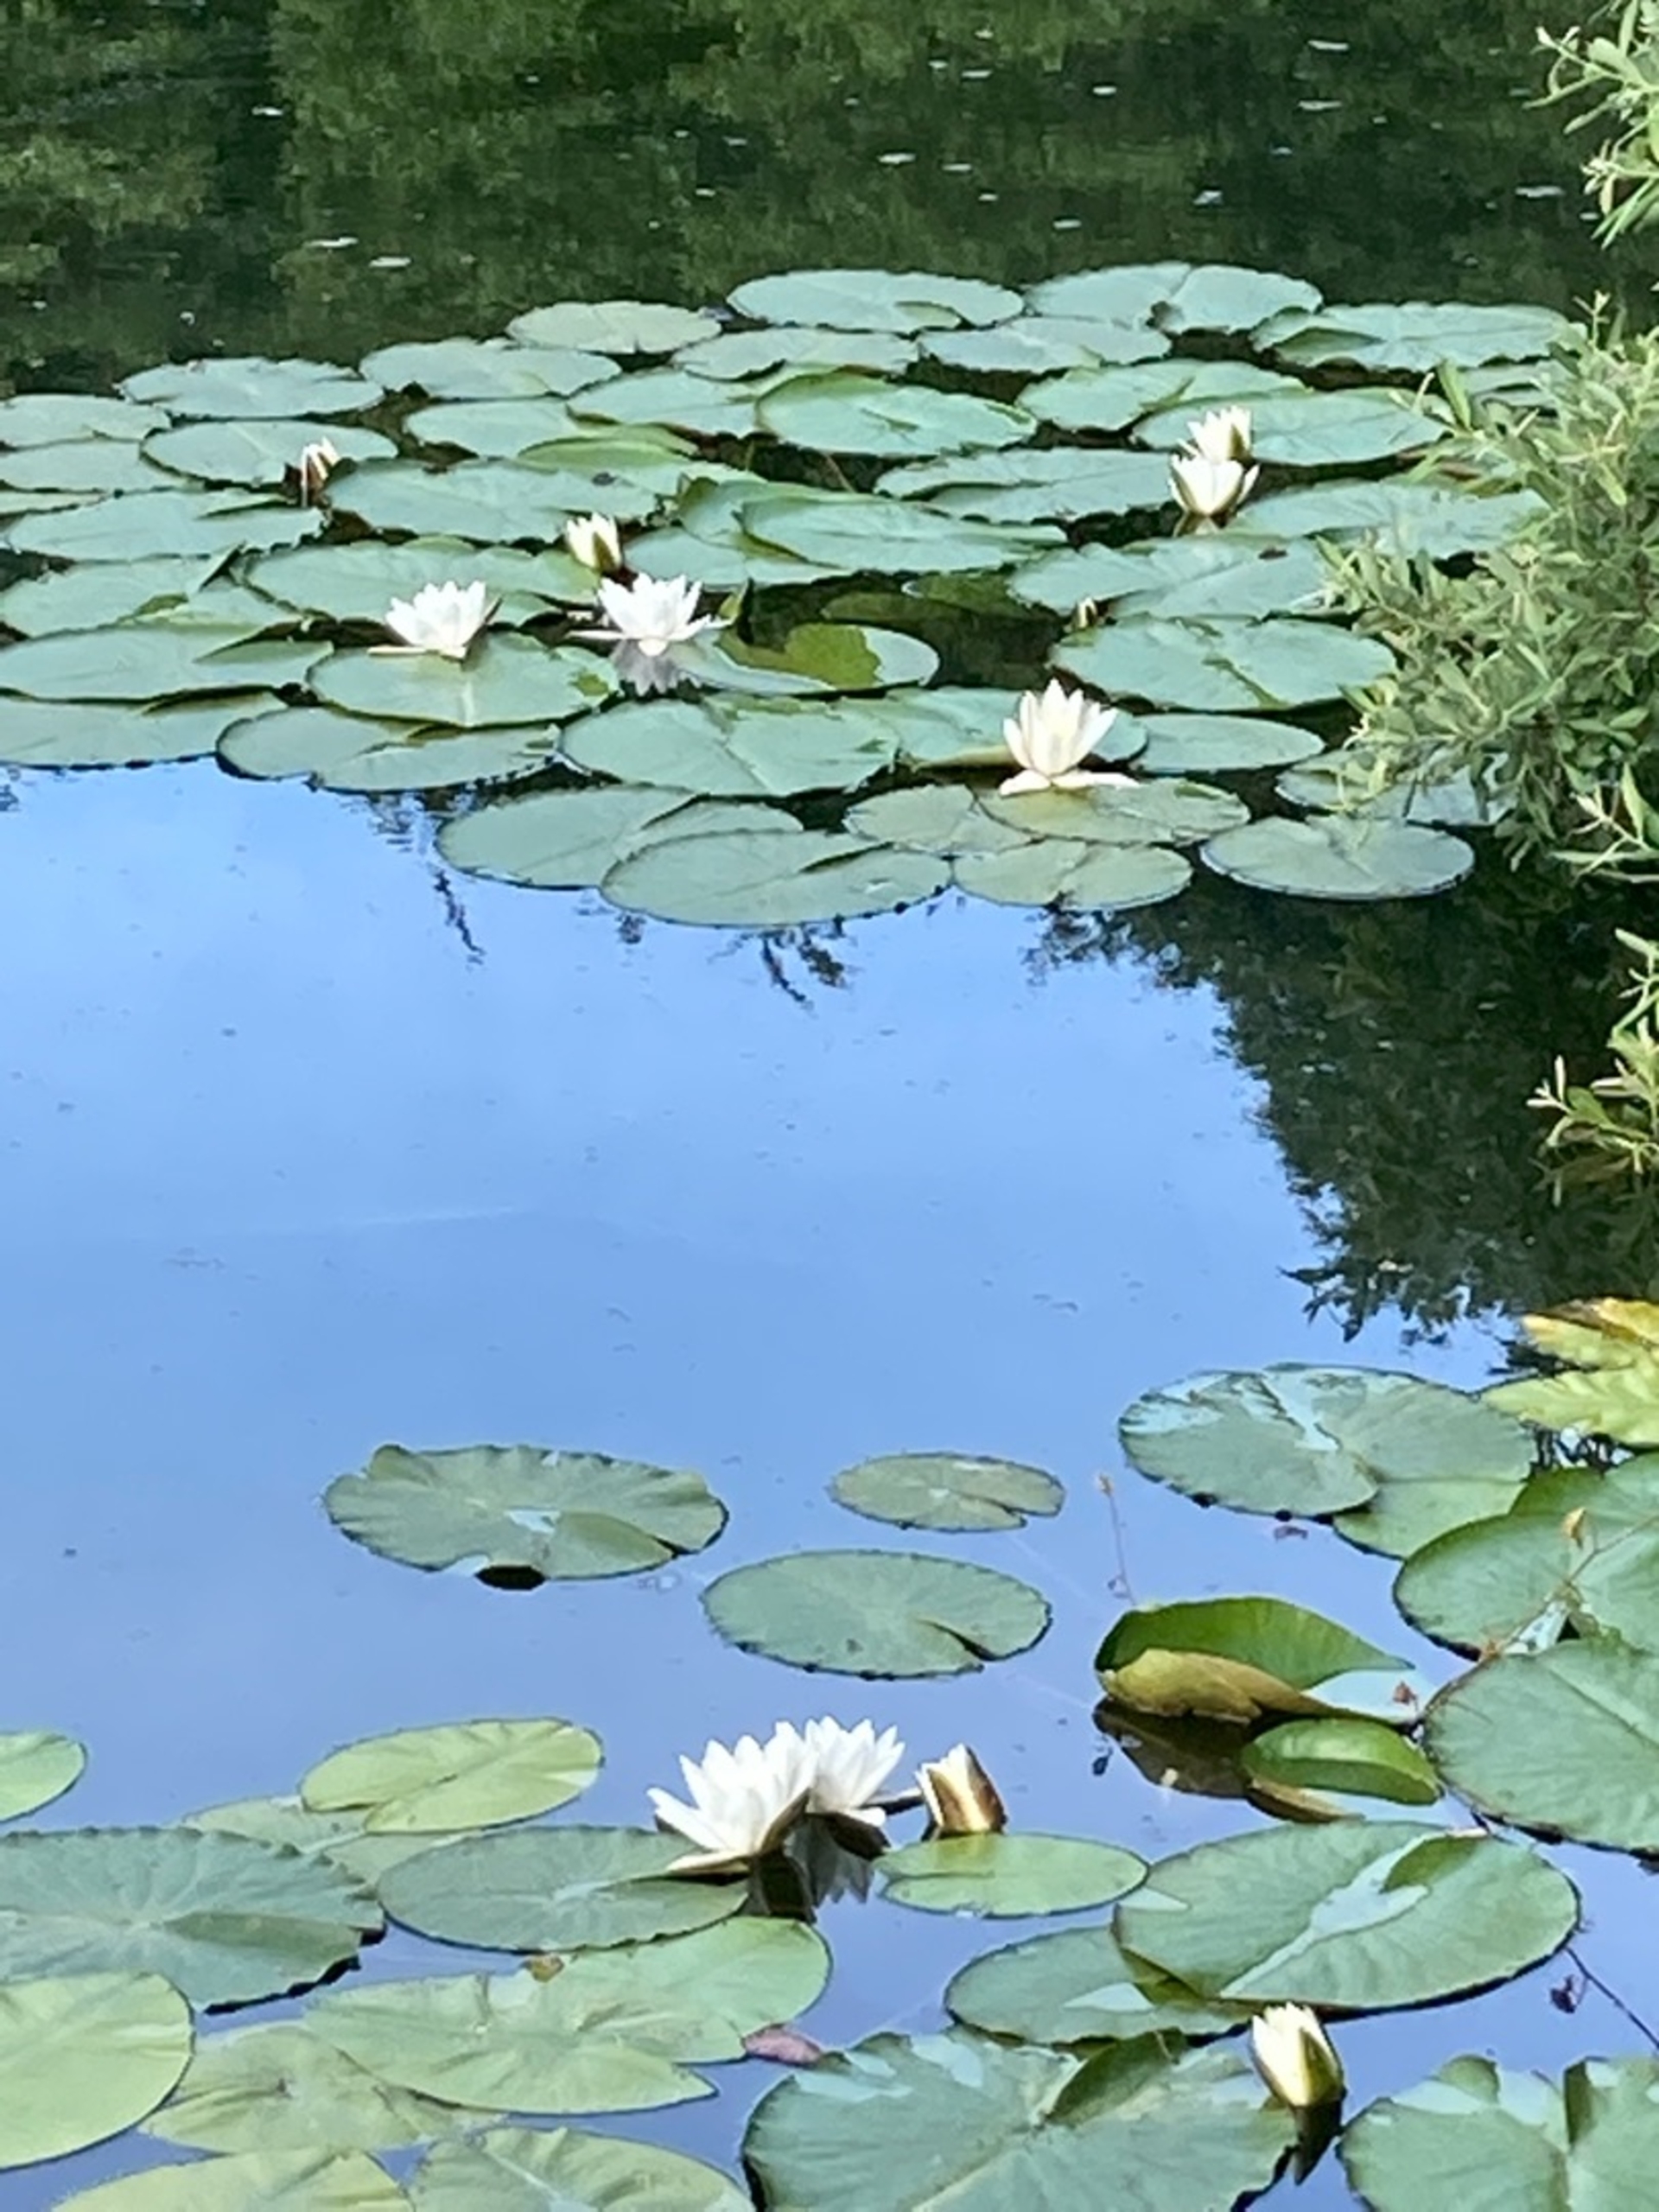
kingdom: Plantae
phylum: Tracheophyta
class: Magnoliopsida
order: Nymphaeales
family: Nymphaeaceae
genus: Nymphaea
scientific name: Nymphaea alba
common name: Hvid åkande
